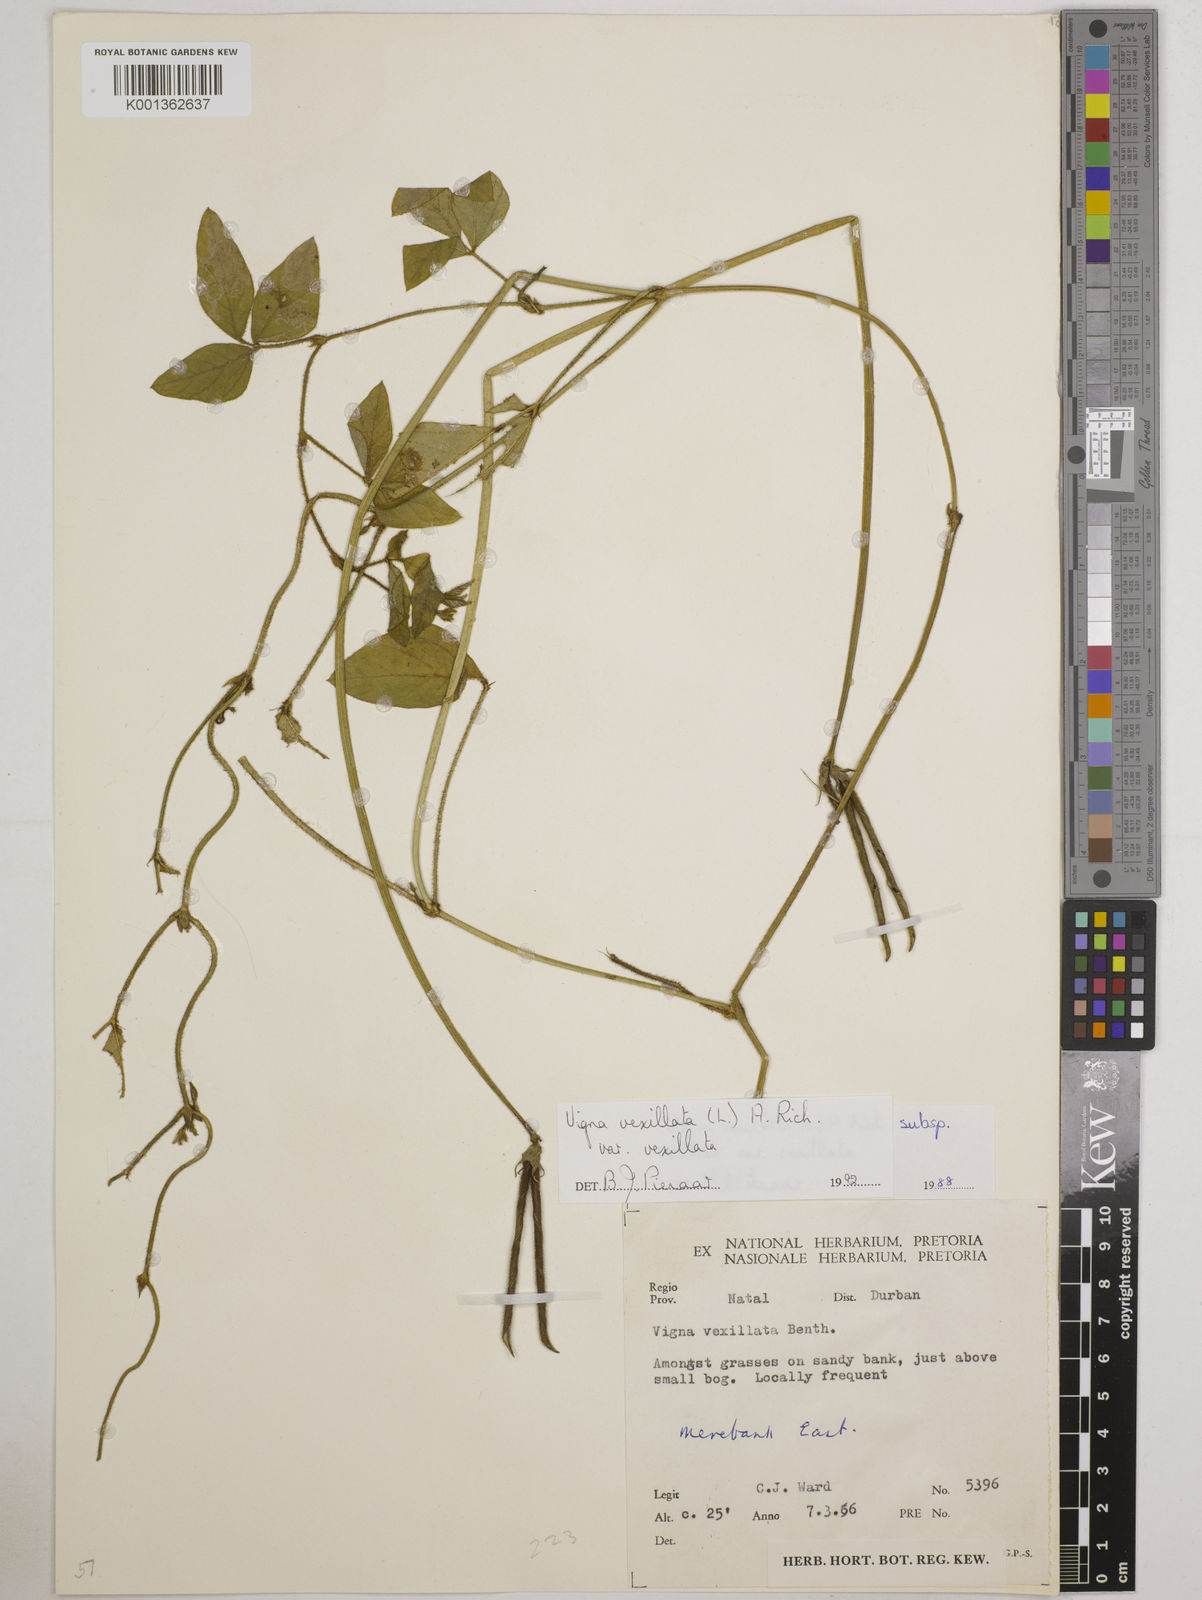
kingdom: Plantae
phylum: Tracheophyta
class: Magnoliopsida
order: Fabales
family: Fabaceae
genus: Vigna
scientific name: Vigna vexillata
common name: Zombi pea
